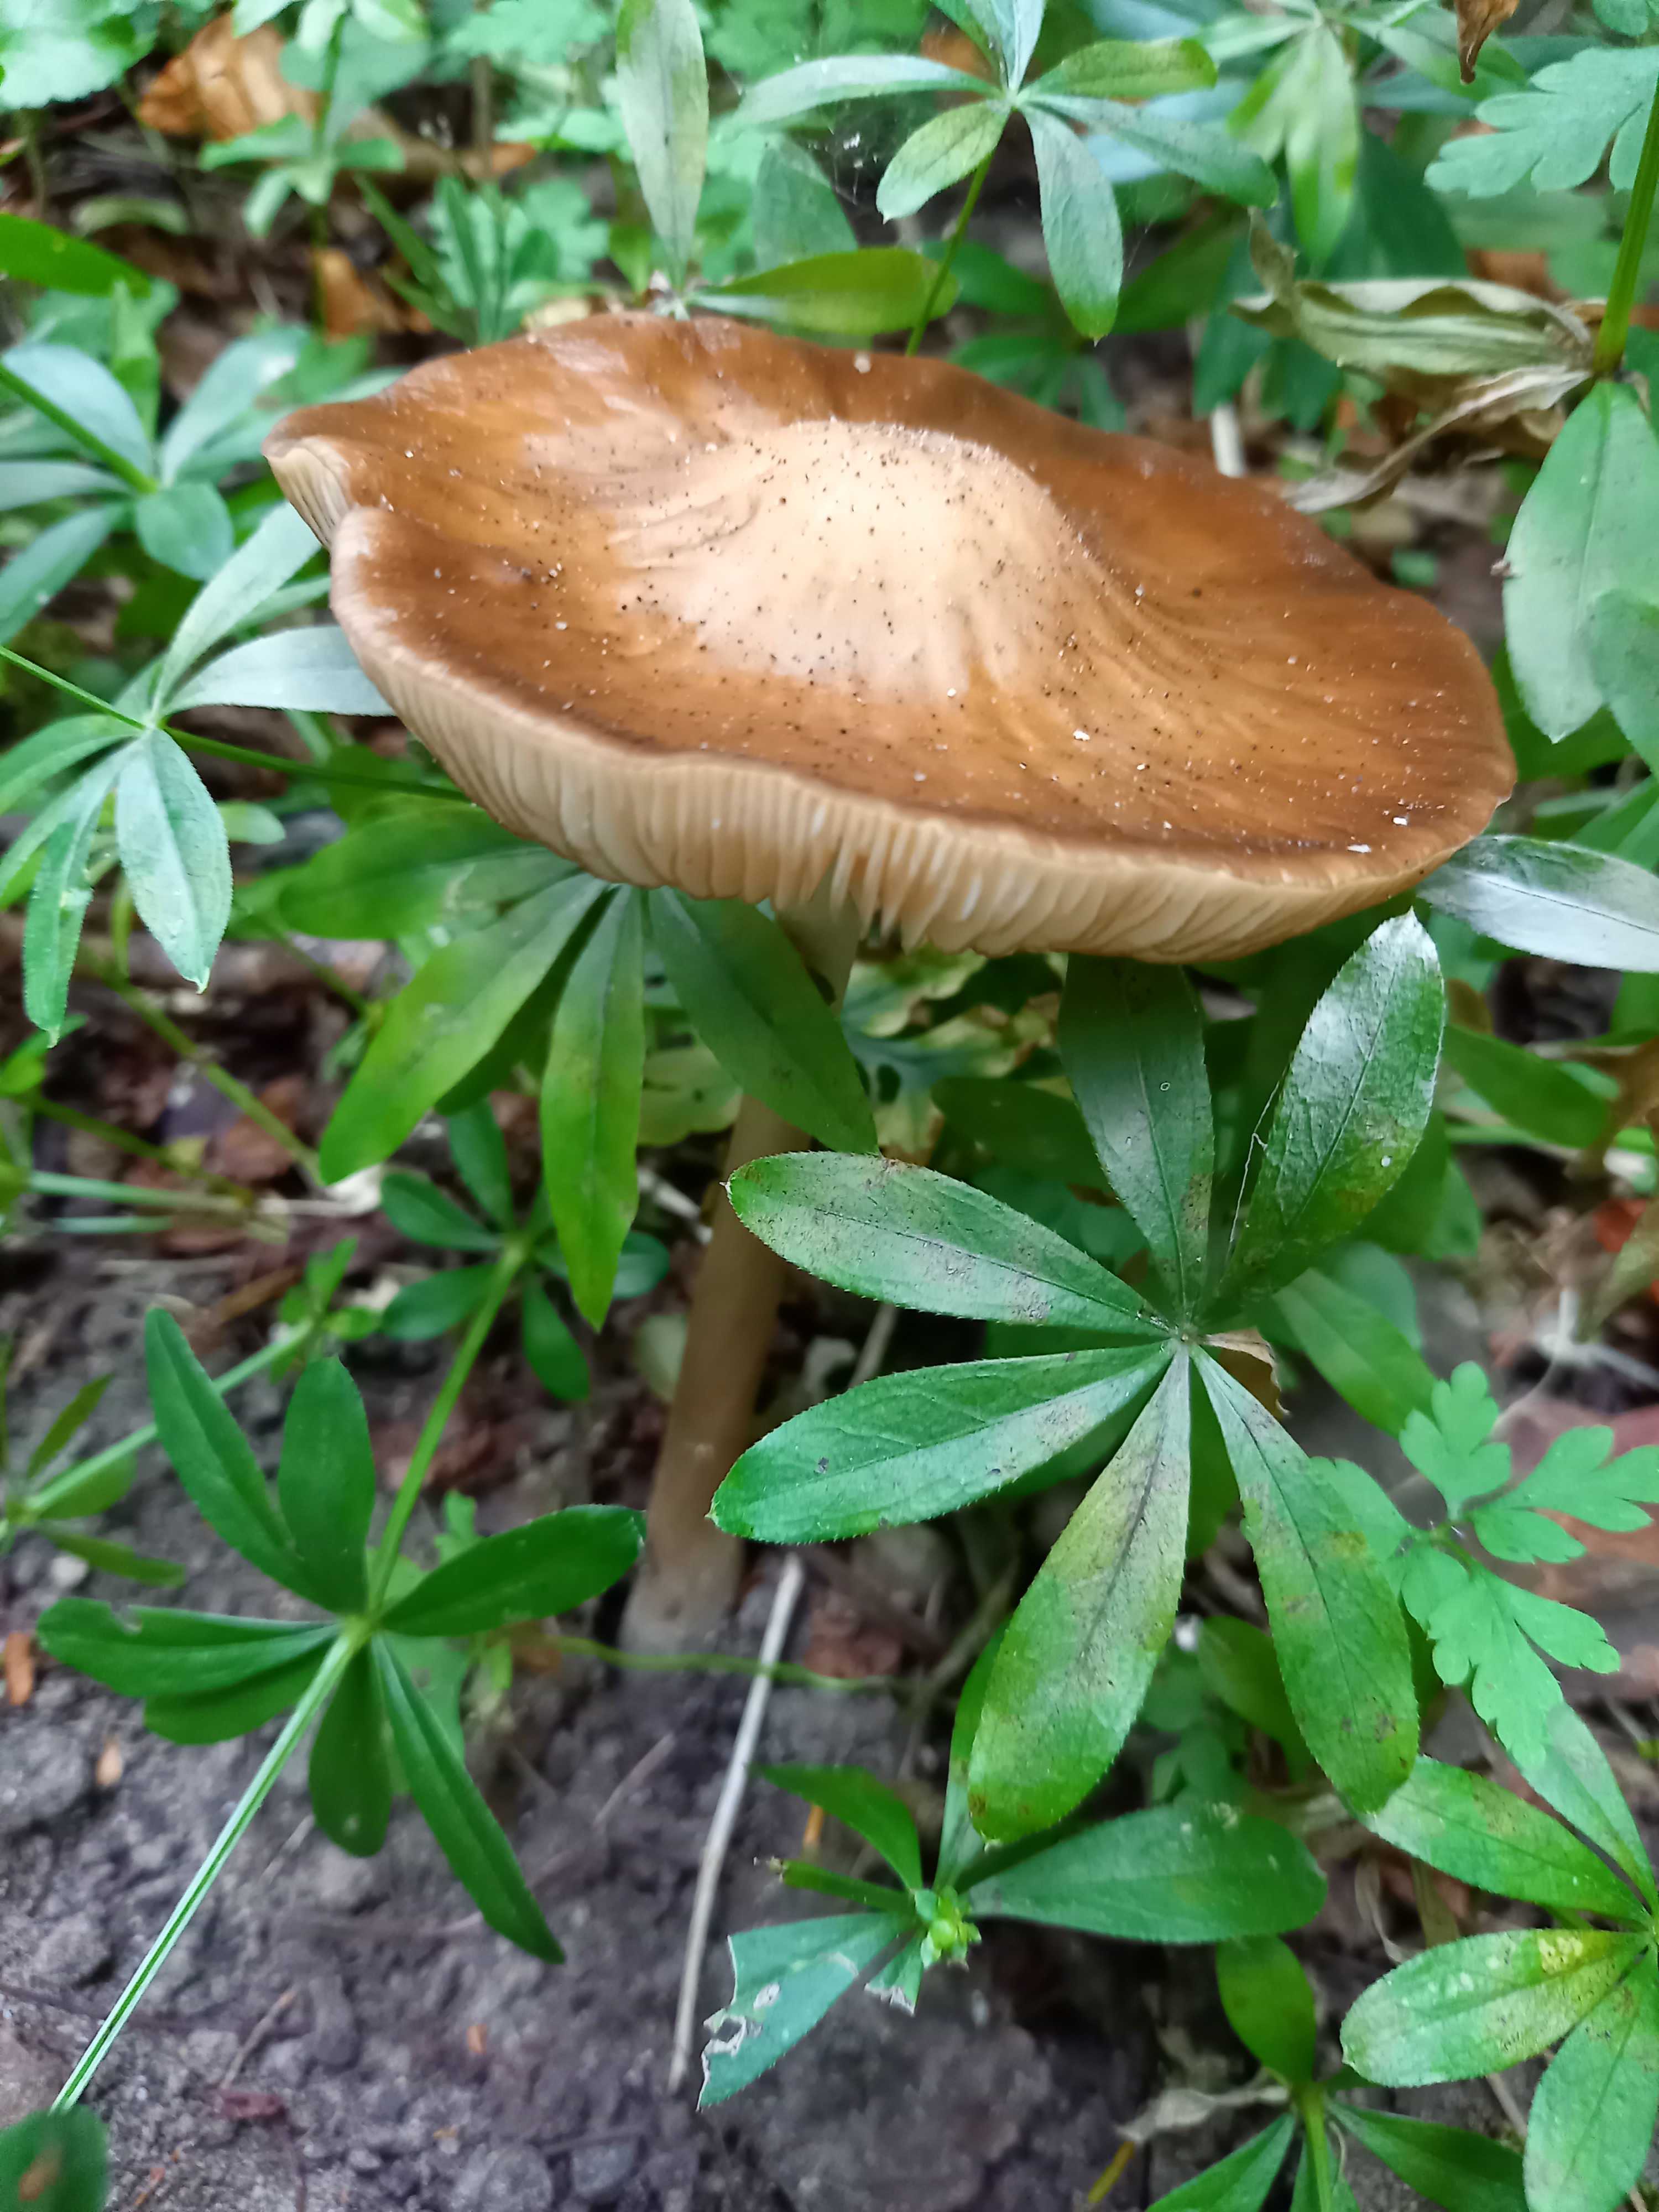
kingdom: Fungi
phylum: Basidiomycota
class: Agaricomycetes
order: Agaricales
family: Physalacriaceae
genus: Hymenopellis
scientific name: Hymenopellis radicata
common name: almindelig pælerodshat
